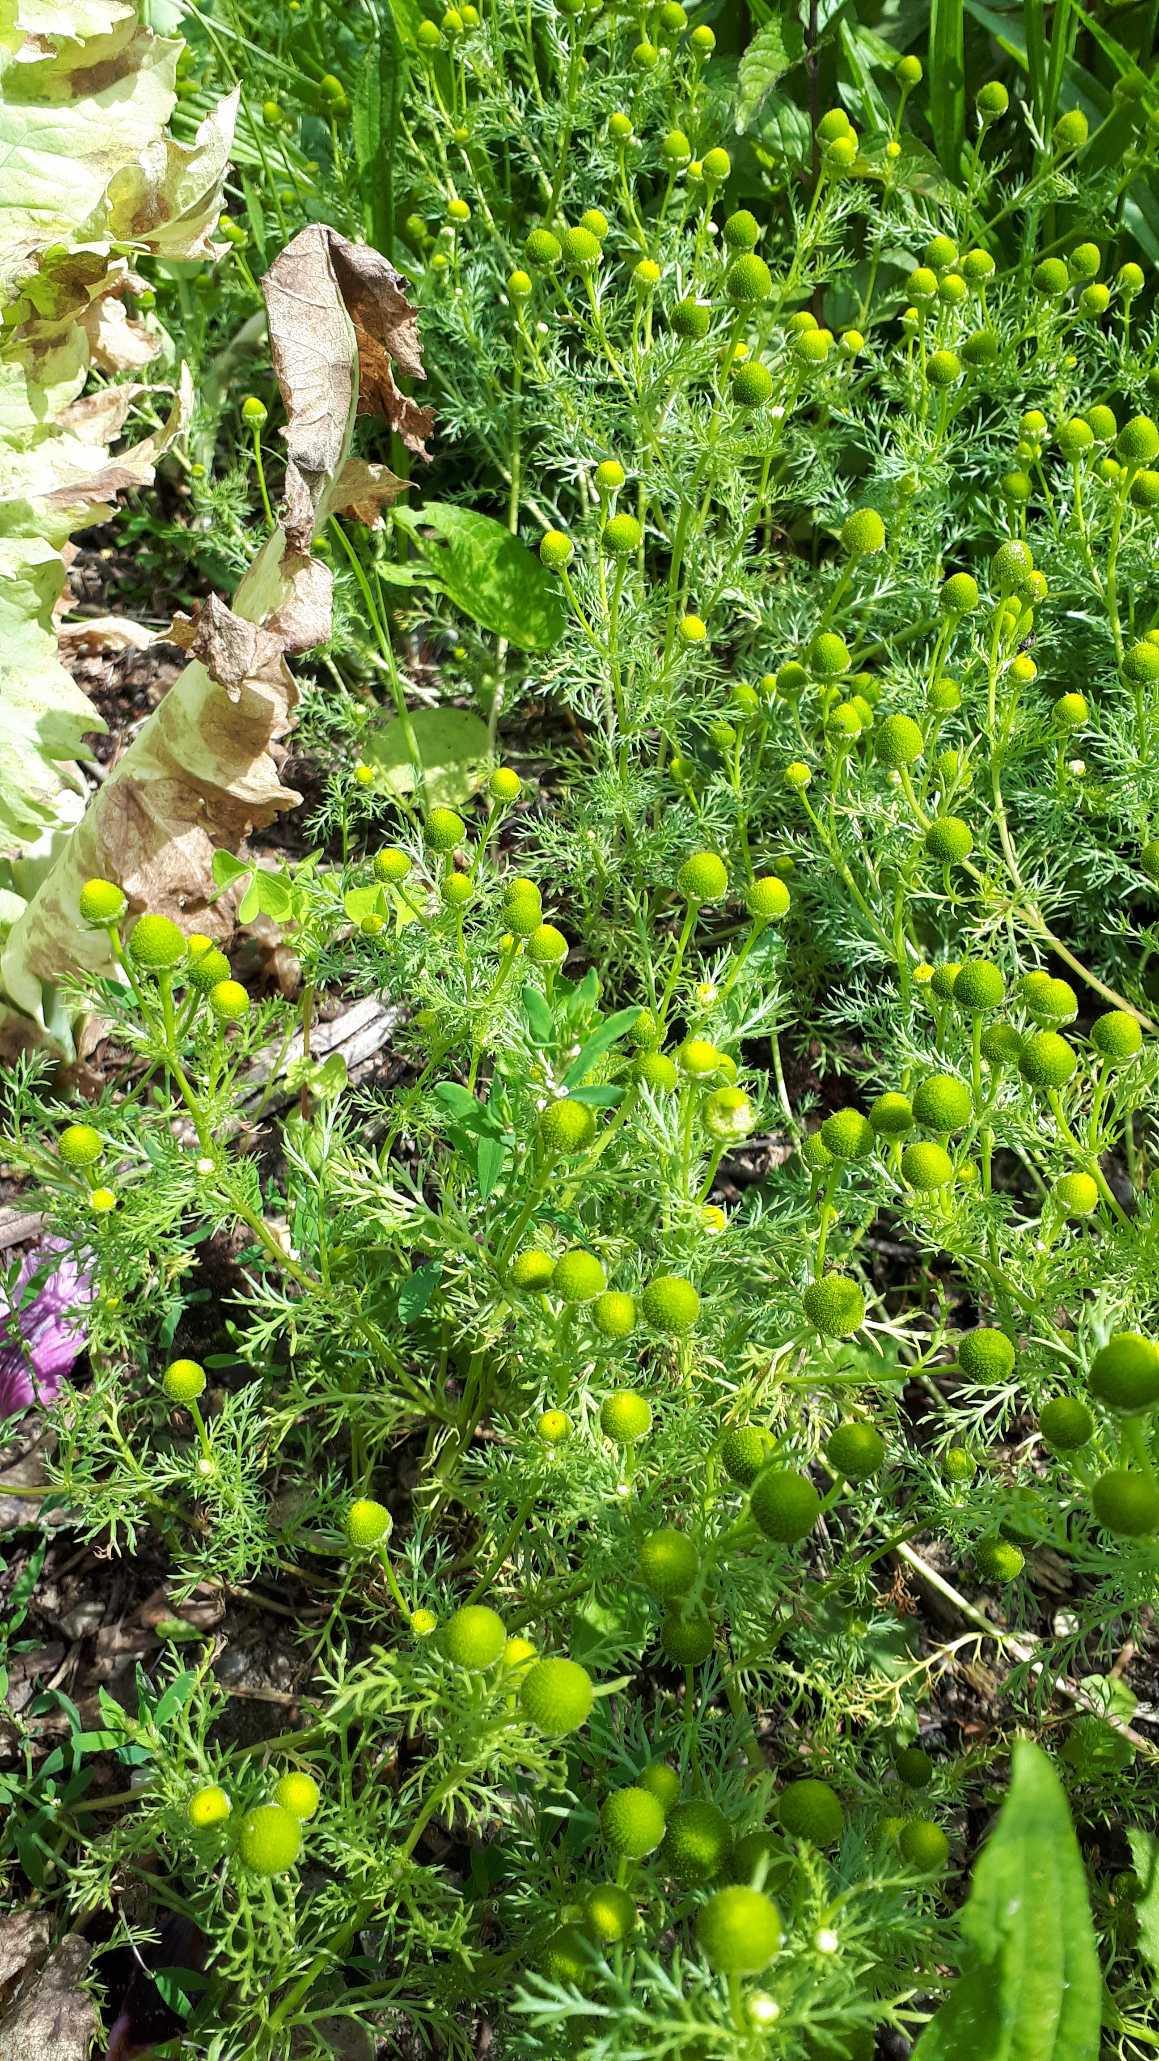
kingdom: Plantae
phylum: Tracheophyta
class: Magnoliopsida
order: Asterales
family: Asteraceae
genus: Matricaria
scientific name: Matricaria discoidea
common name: Skive-kamille
